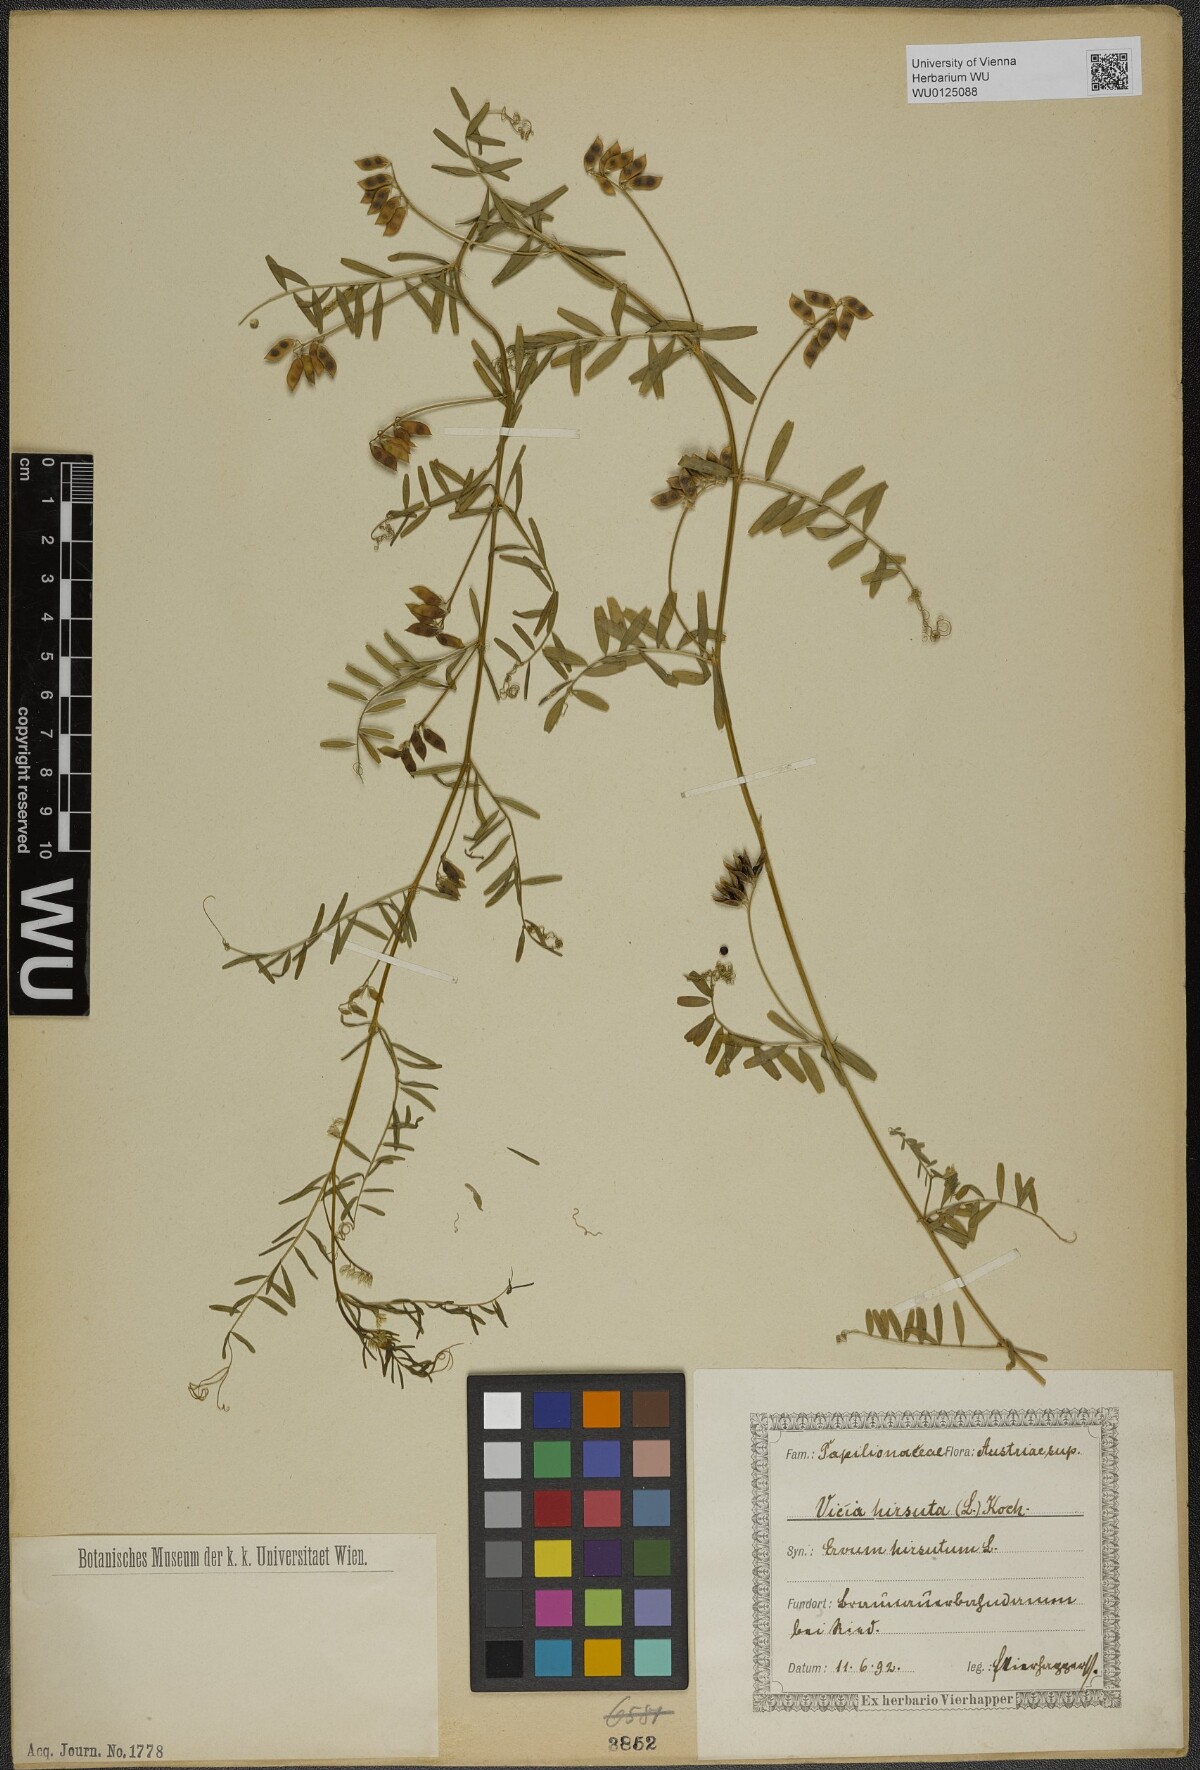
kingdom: Plantae
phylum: Tracheophyta
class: Magnoliopsida
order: Fabales
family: Fabaceae
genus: Vicia
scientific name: Vicia hirsuta
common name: Tiny vetch
